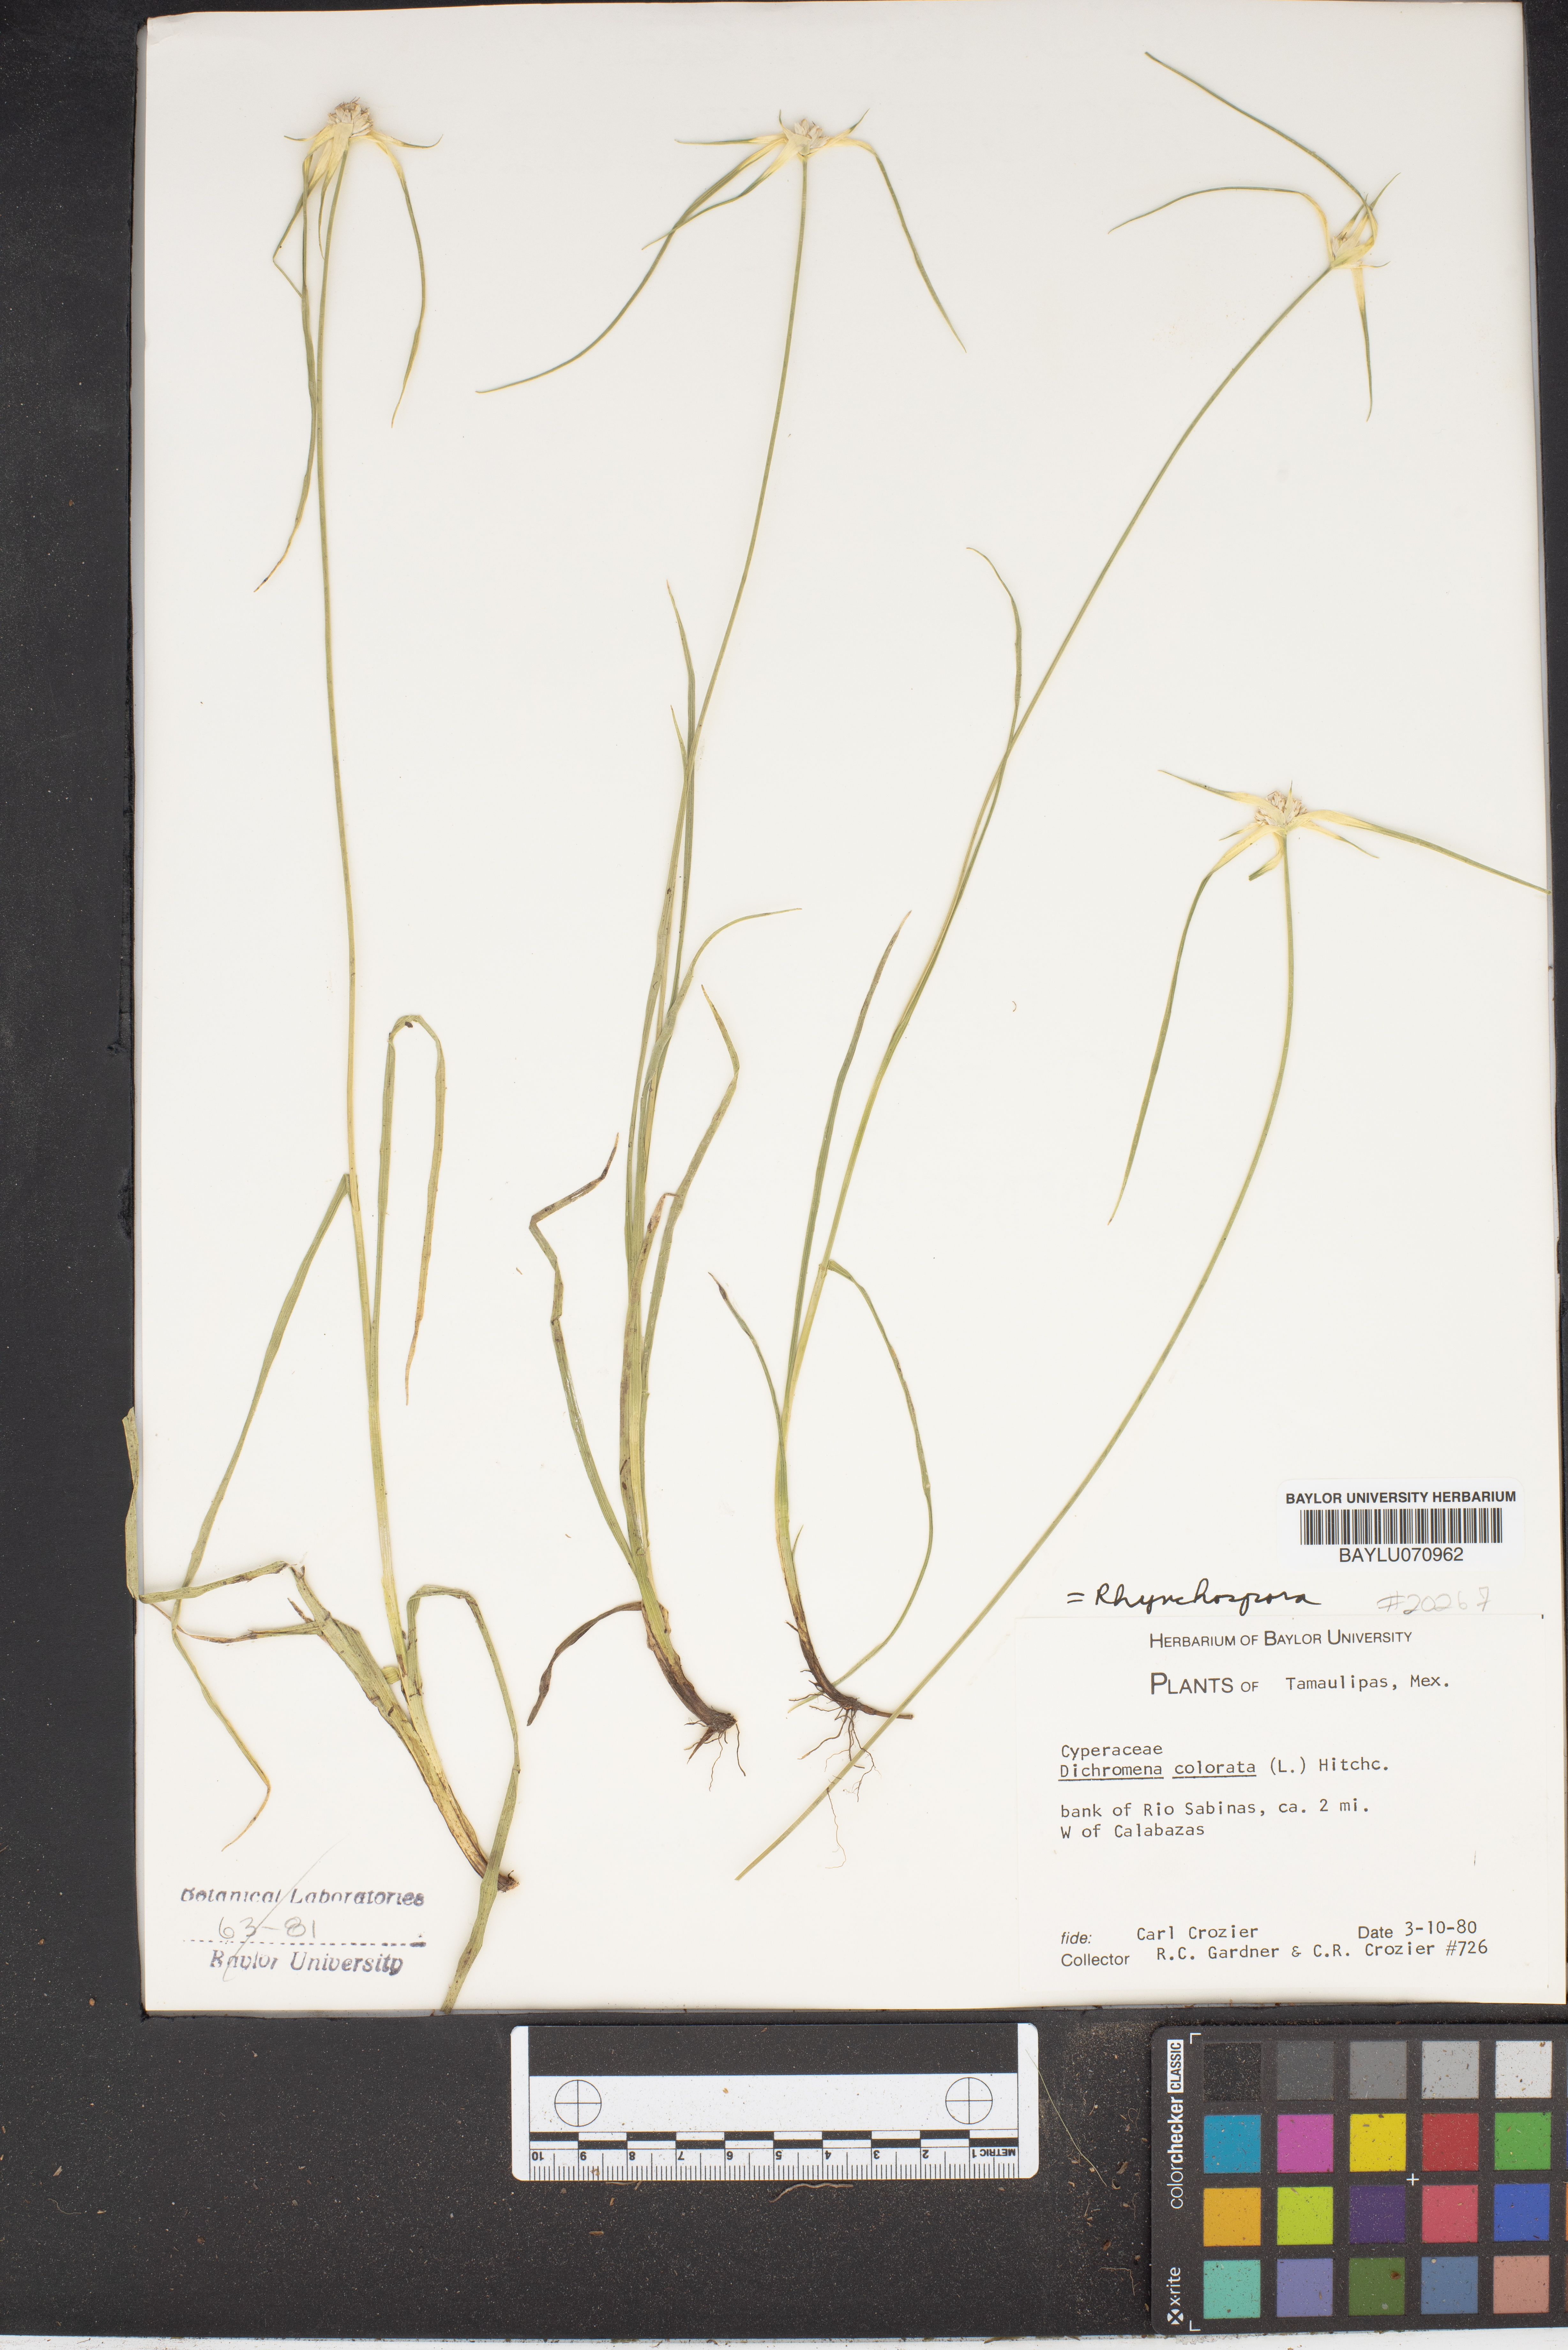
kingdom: Plantae
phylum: Tracheophyta
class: Liliopsida
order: Poales
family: Cyperaceae
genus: Rhynchospora
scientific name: Rhynchospora colorata
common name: Star sedge
